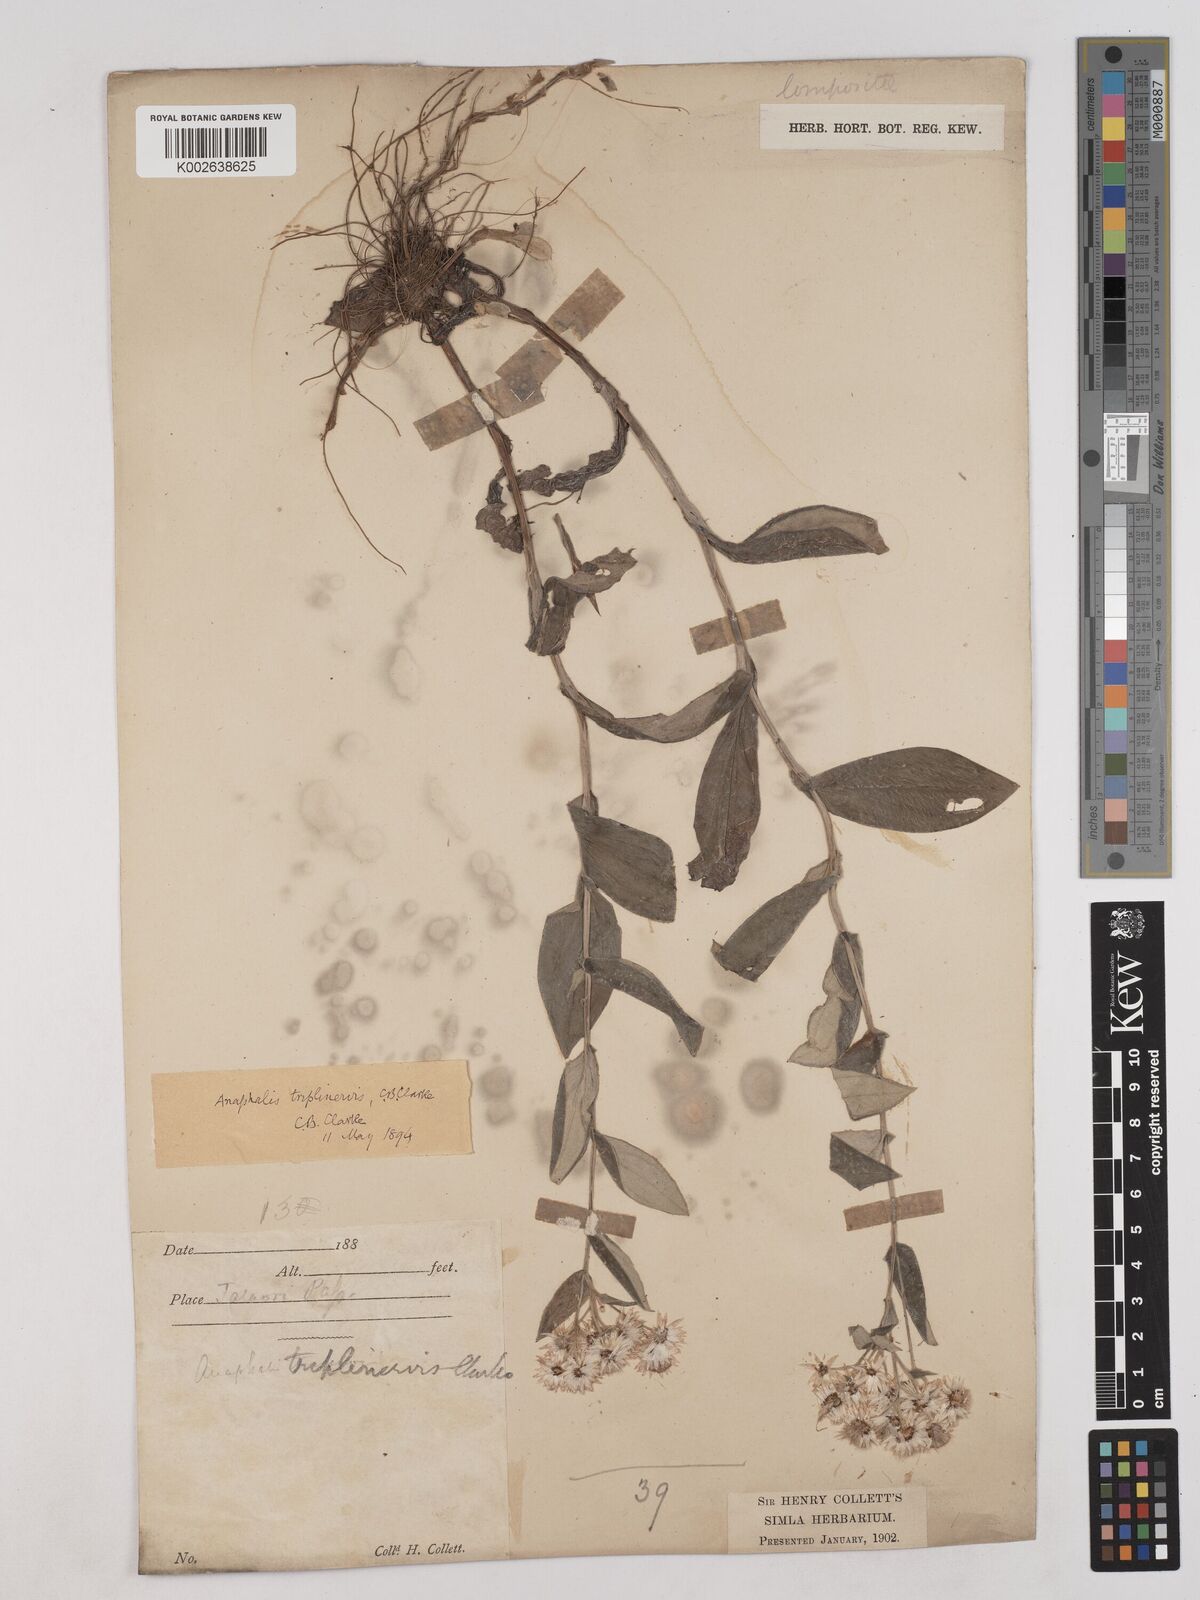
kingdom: Plantae
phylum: Tracheophyta
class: Magnoliopsida
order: Asterales
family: Asteraceae
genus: Anaphalis
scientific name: Anaphalis triplinervis
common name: Pearly everlasting
